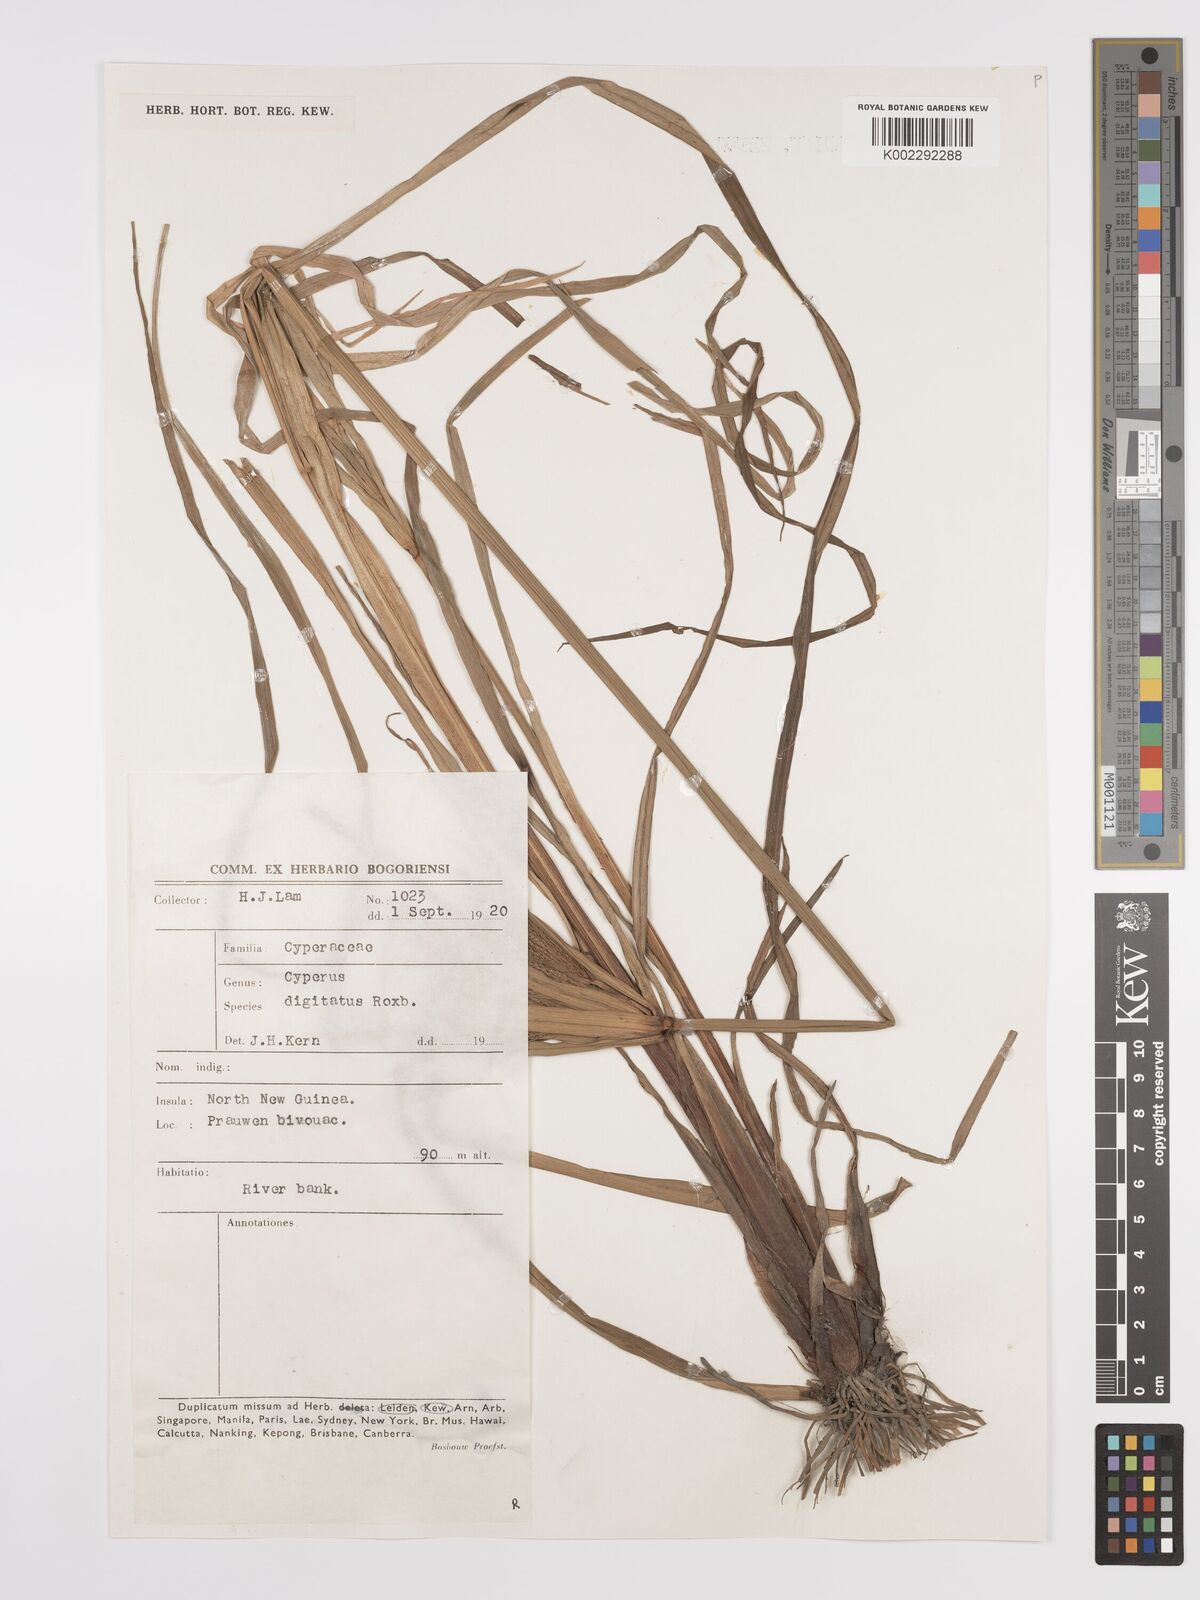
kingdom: Plantae
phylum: Tracheophyta
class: Liliopsida
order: Poales
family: Cyperaceae
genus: Cyperus
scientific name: Cyperus digitatus
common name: Finger flatsedge
